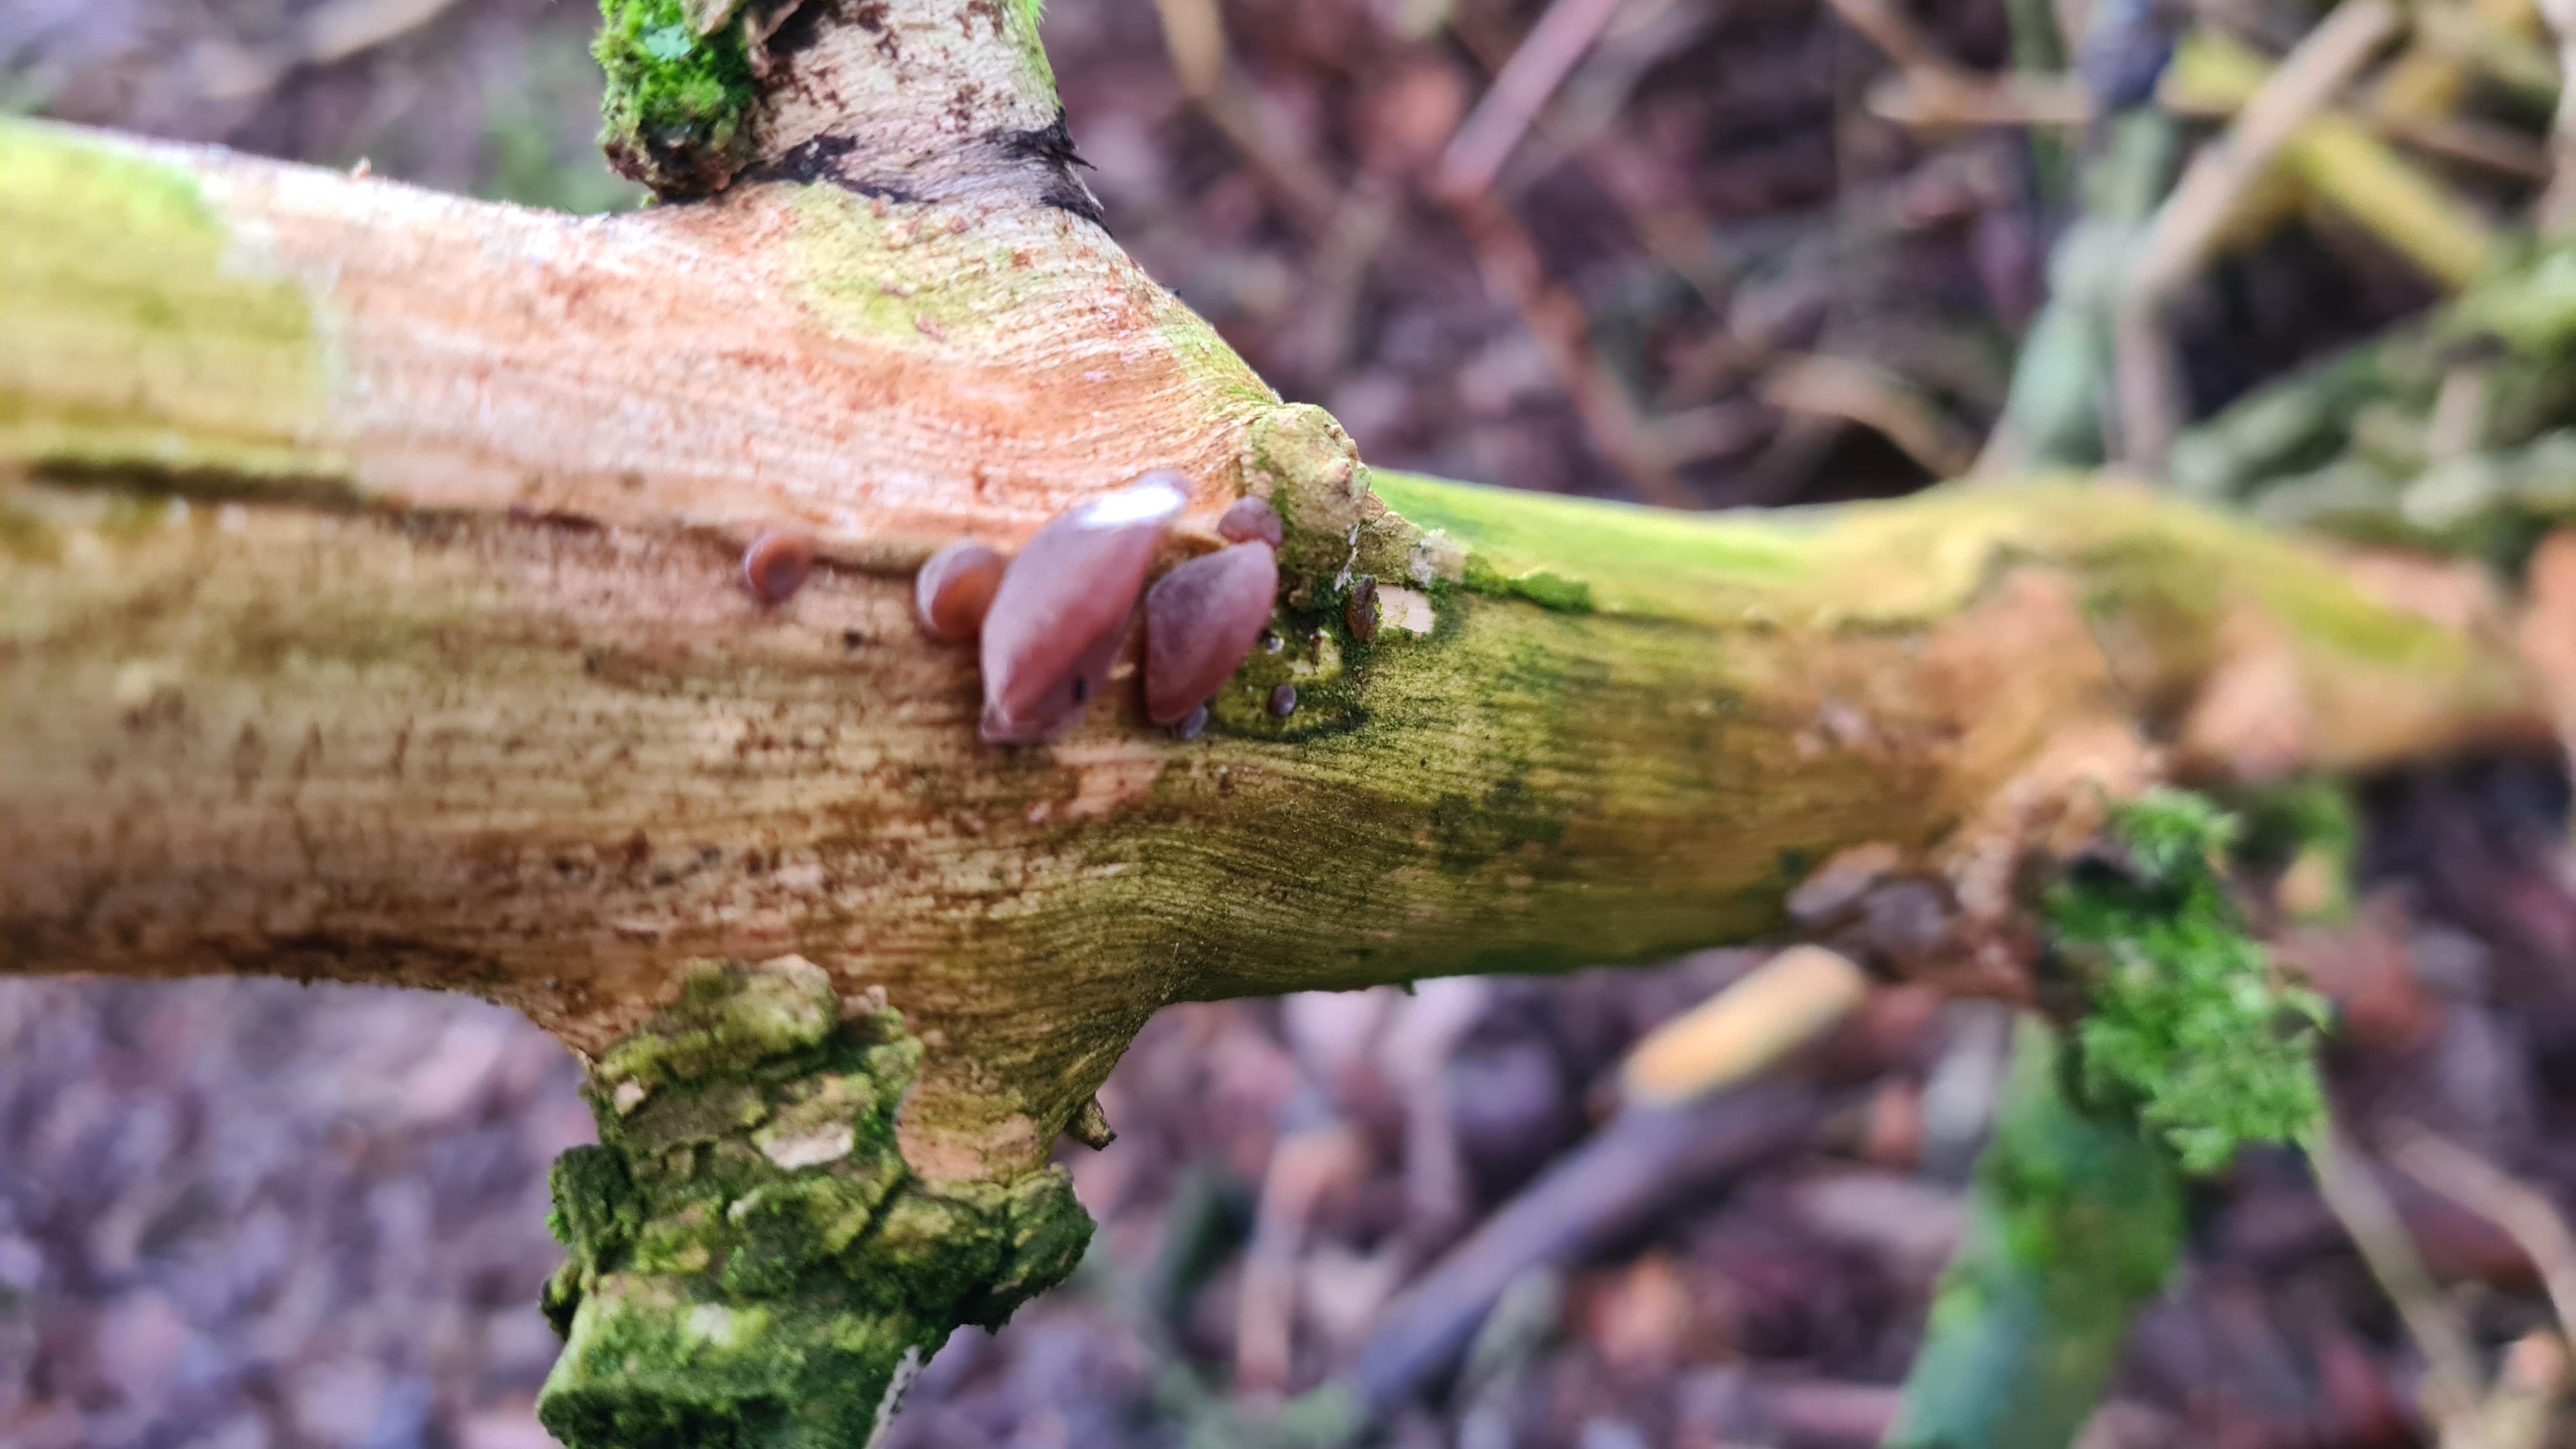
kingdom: Fungi
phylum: Basidiomycota
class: Agaricomycetes
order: Auriculariales
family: Auriculariaceae
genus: Auricularia
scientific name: Auricularia auricula-judae
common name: almindelig judasøre
